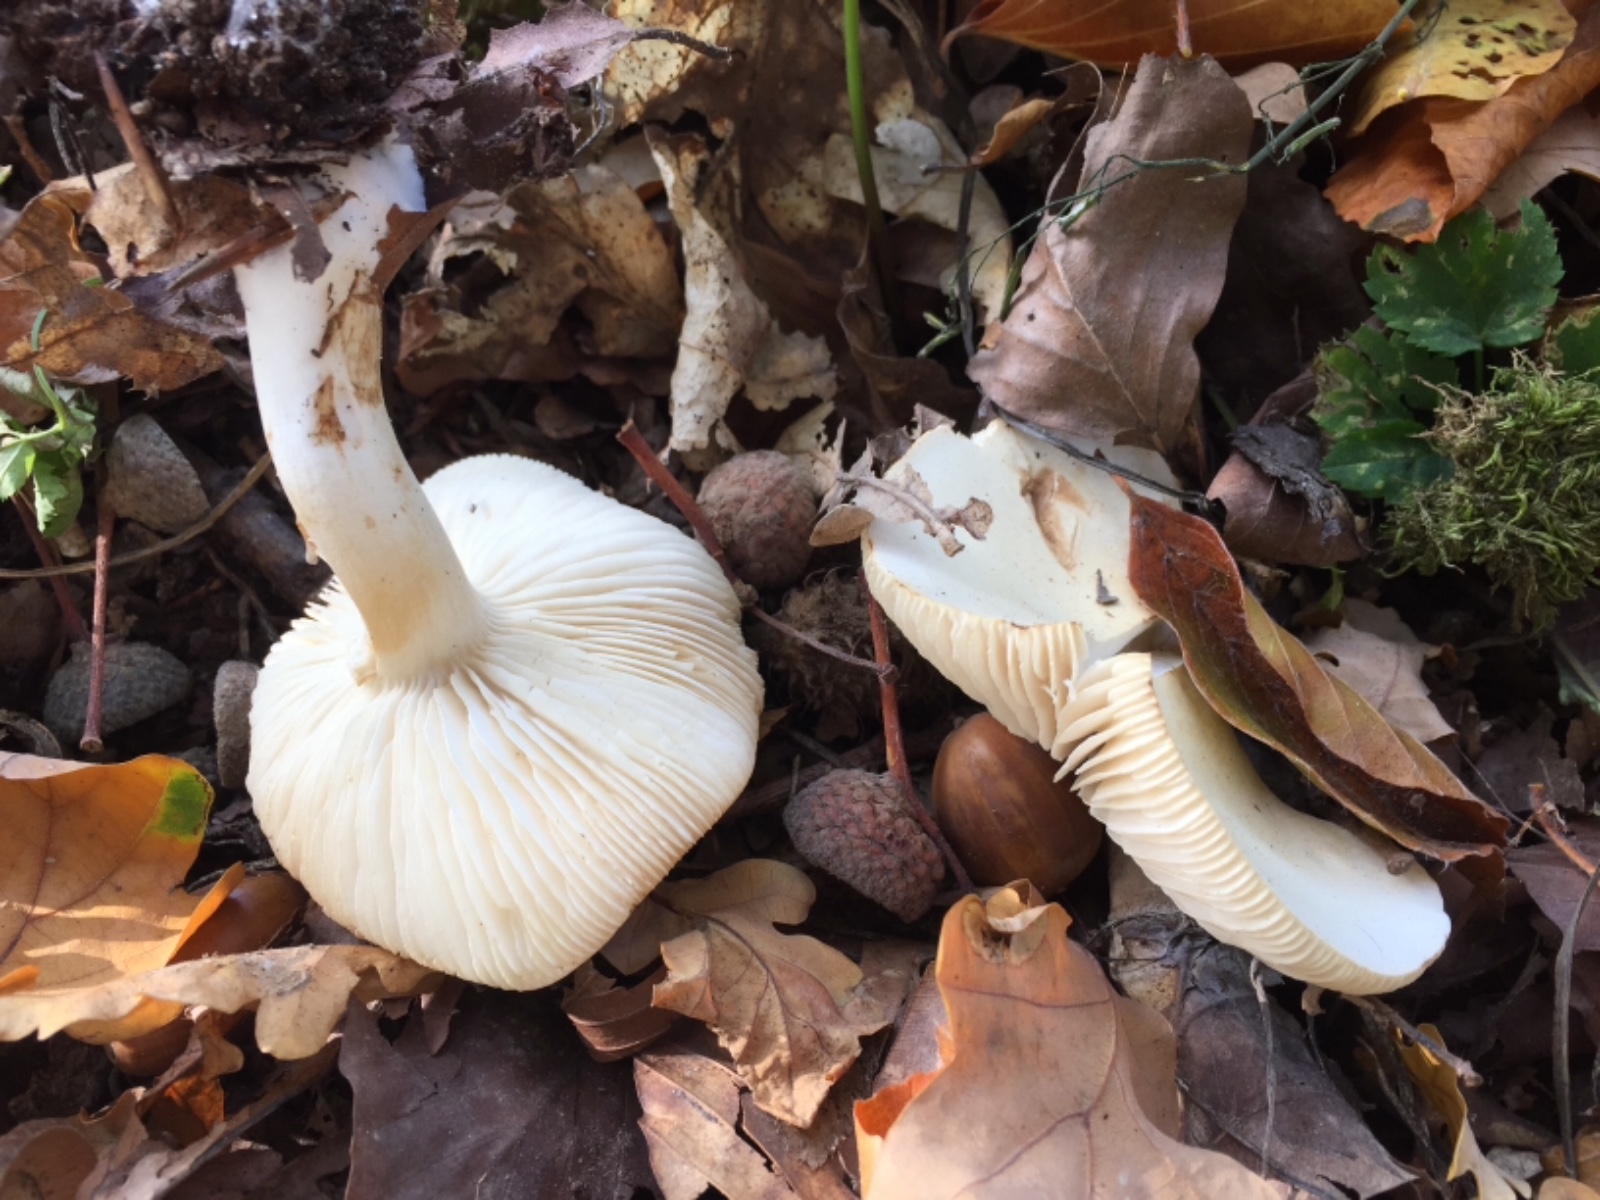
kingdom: Fungi
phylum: Basidiomycota
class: Agaricomycetes
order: Agaricales
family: Tricholomataceae
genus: Tricholoma
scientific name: Tricholoma album
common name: honning-ridderhat
